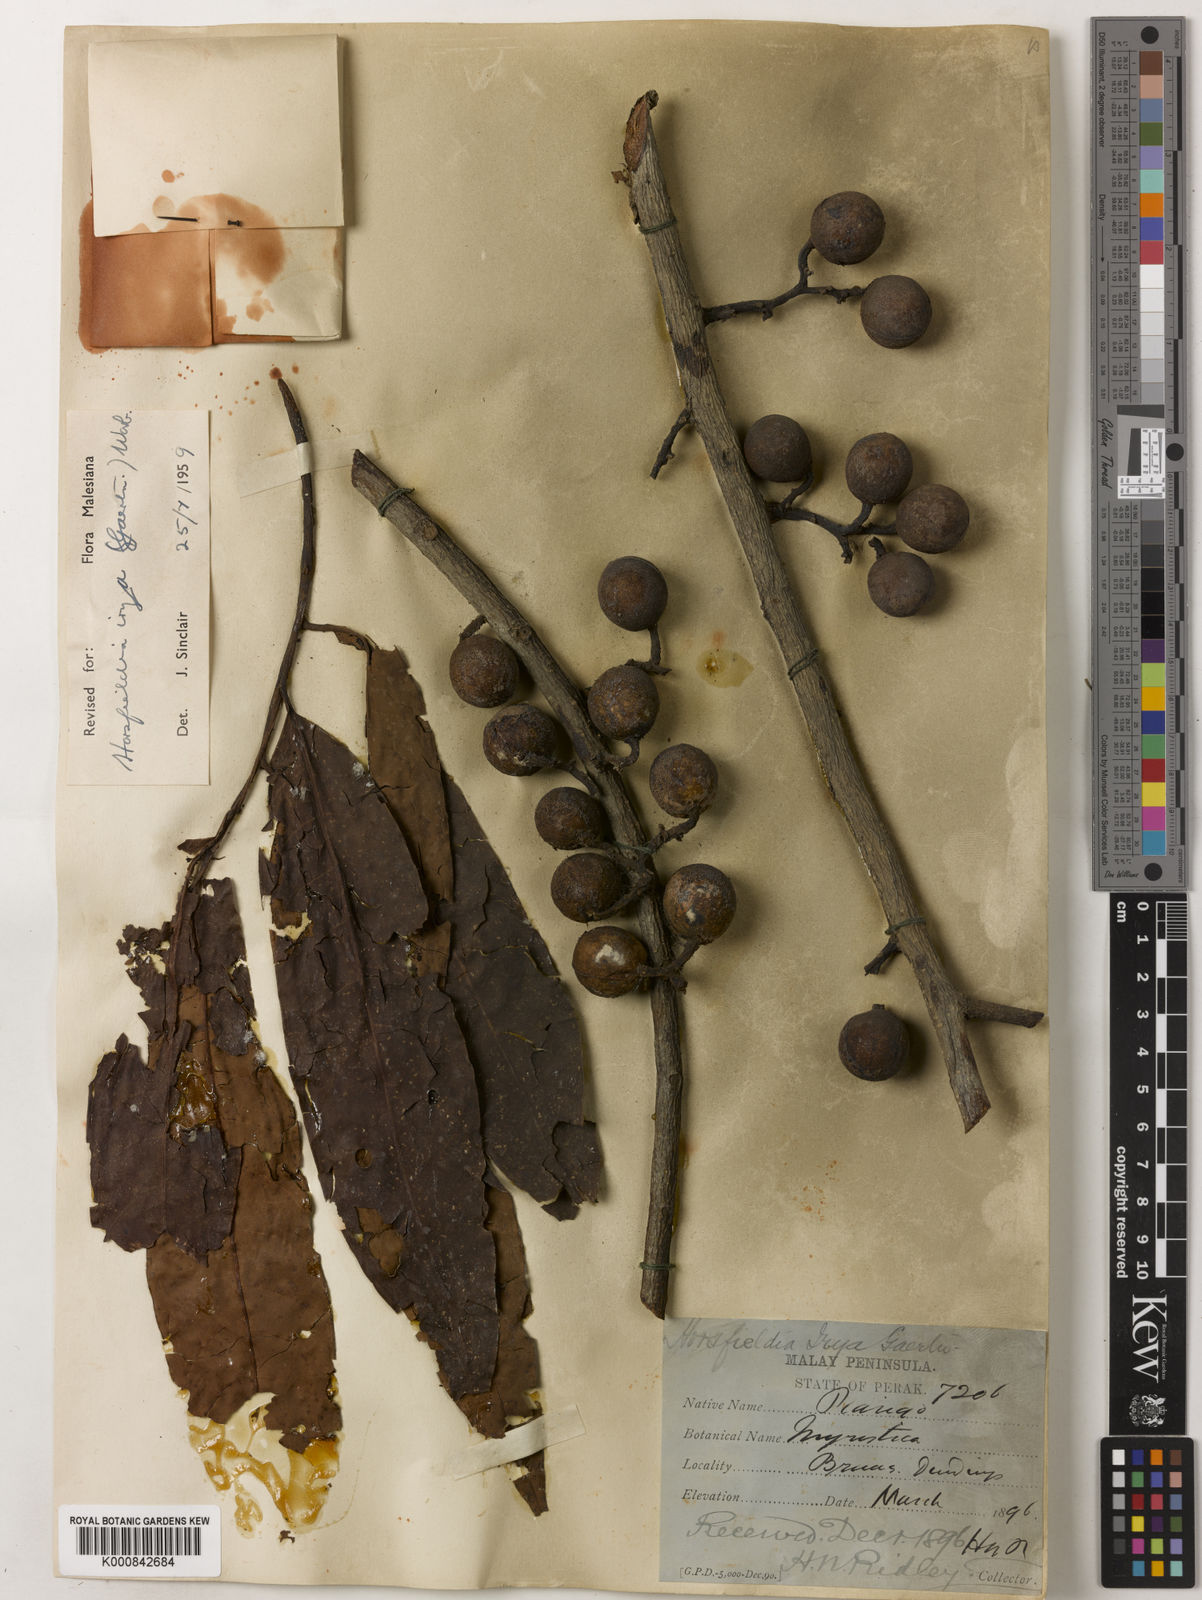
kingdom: Plantae
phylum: Tracheophyta
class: Magnoliopsida
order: Magnoliales
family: Myristicaceae
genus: Horsfieldia
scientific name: Horsfieldia irya
